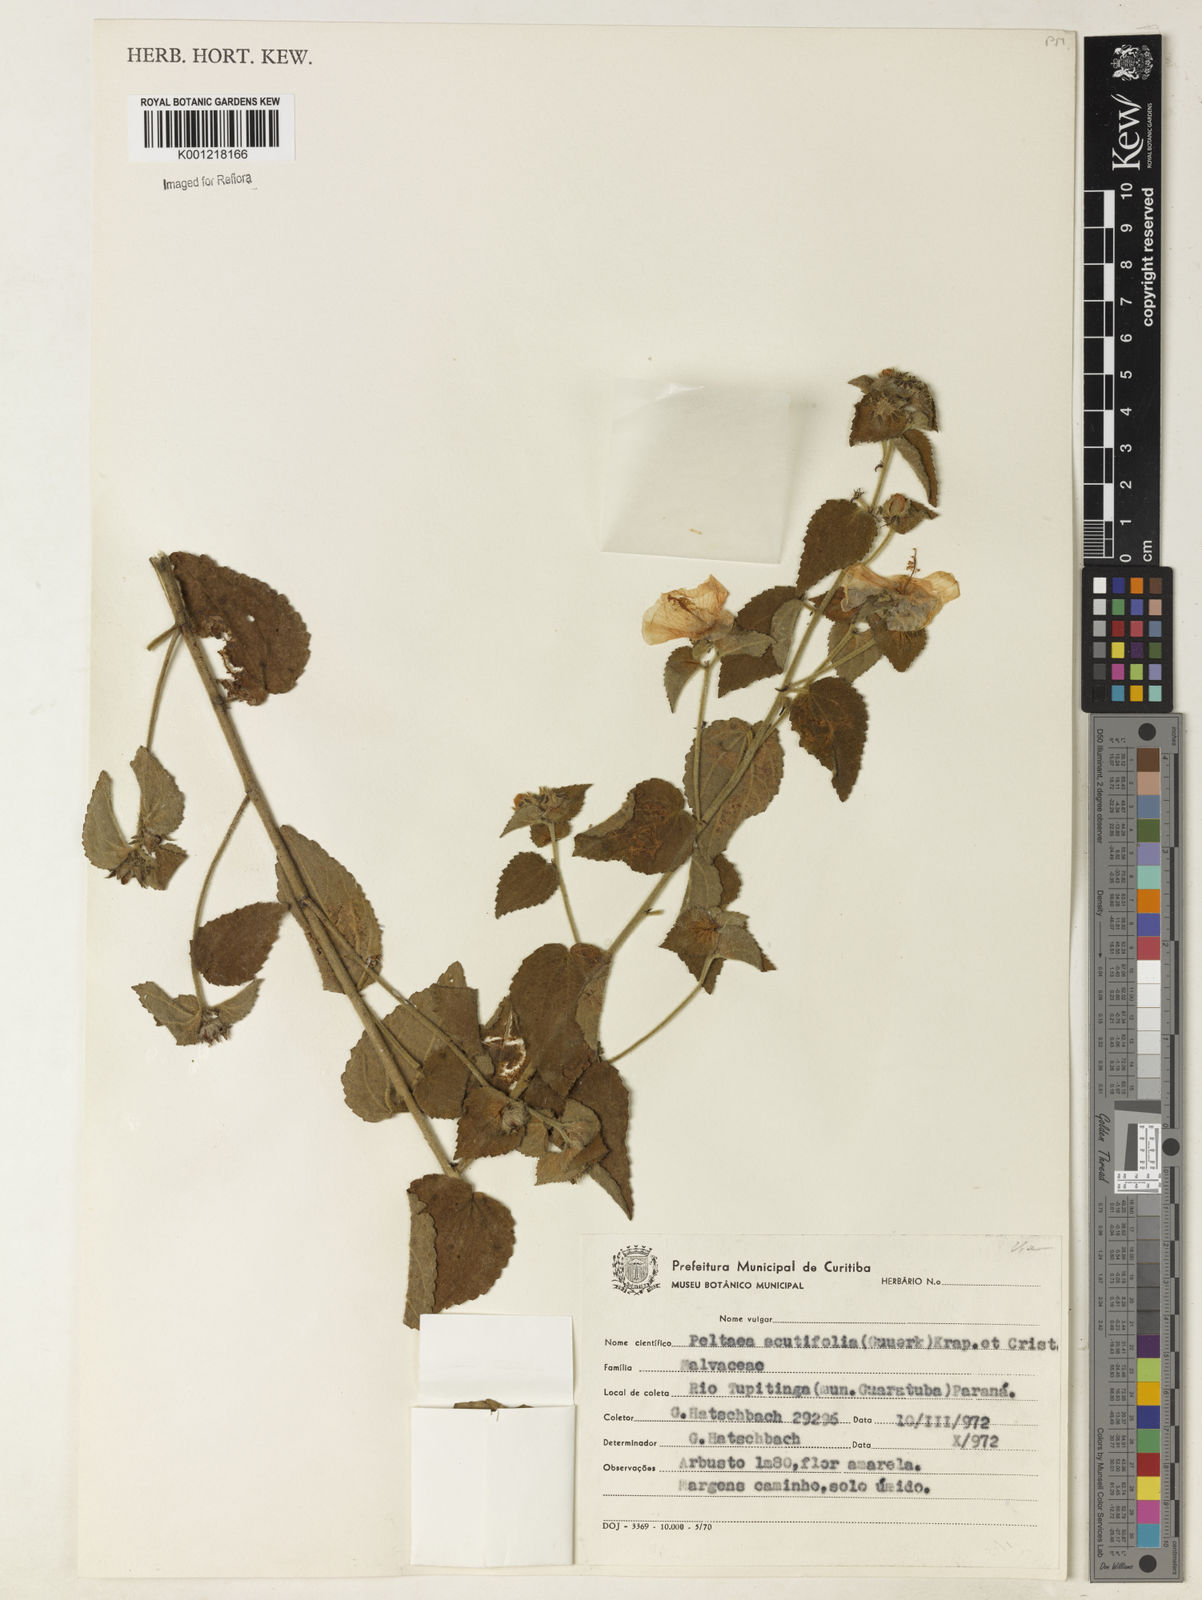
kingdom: Plantae
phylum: Tracheophyta
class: Magnoliopsida
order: Malvales
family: Malvaceae
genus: Peltaea
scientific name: Peltaea
